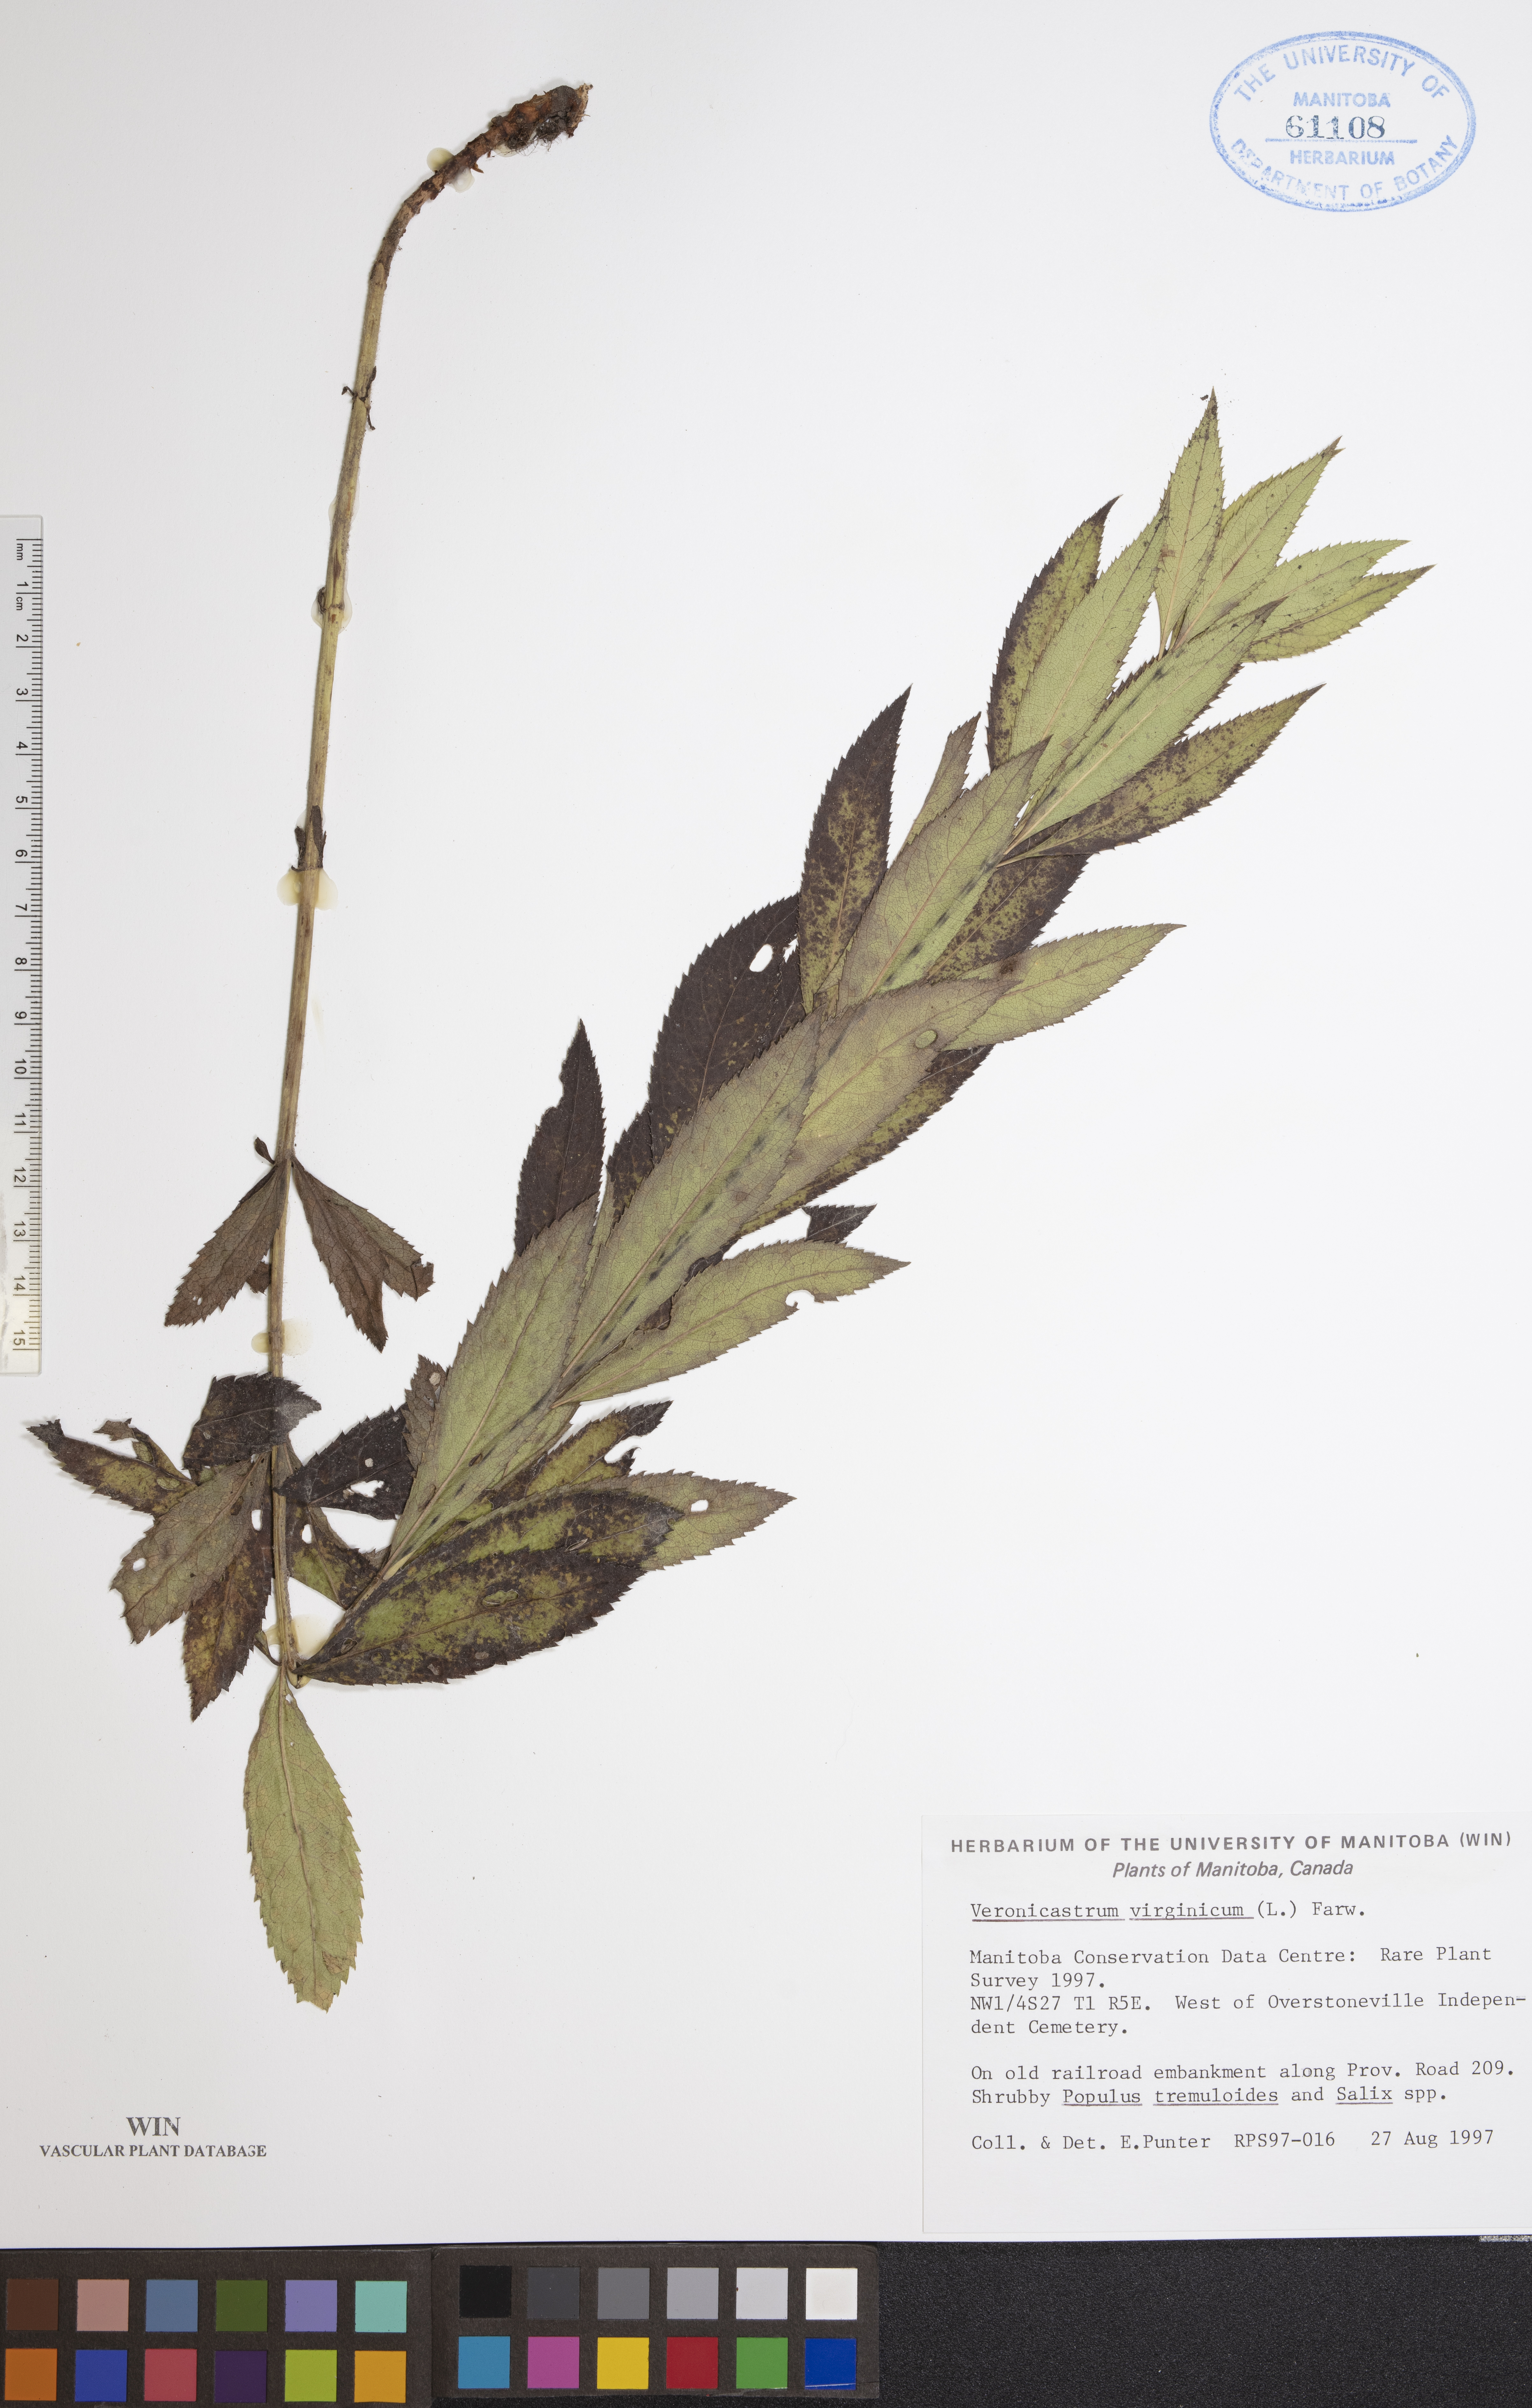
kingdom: Plantae
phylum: Tracheophyta
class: Magnoliopsida
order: Lamiales
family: Plantaginaceae
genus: Veronicastrum
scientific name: Veronicastrum virginicum
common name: Blackroot
